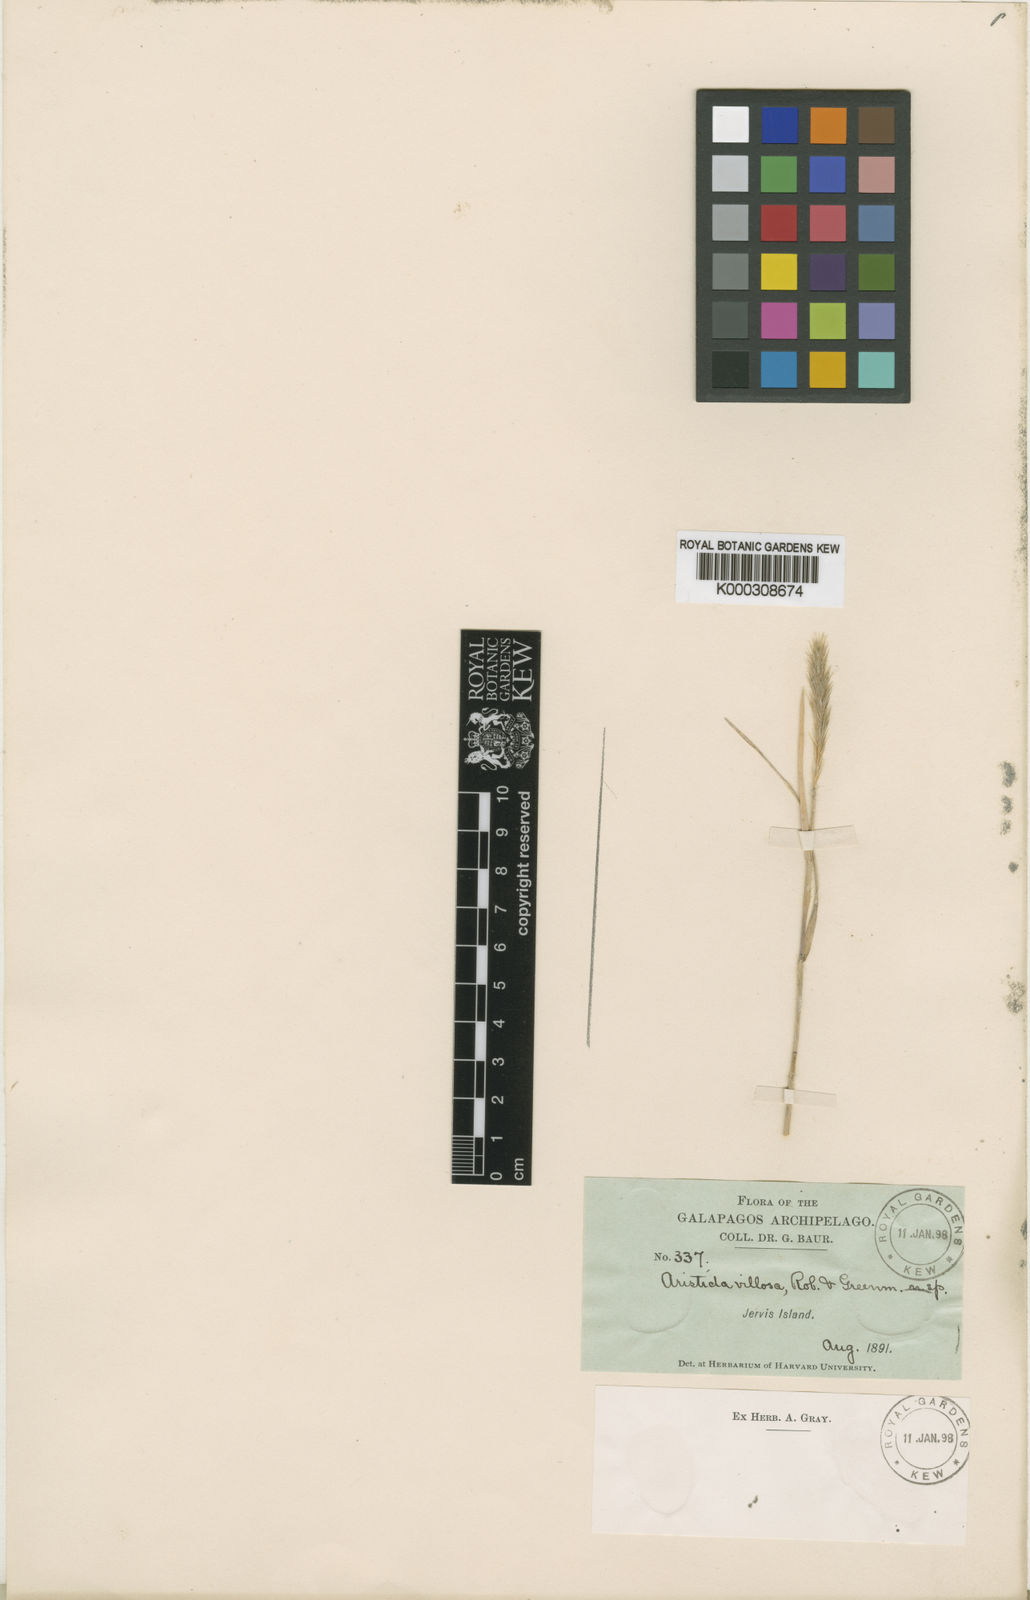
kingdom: Plantae
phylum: Tracheophyta
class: Liliopsida
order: Poales
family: Poaceae
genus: Aristida
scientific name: Aristida villosa
